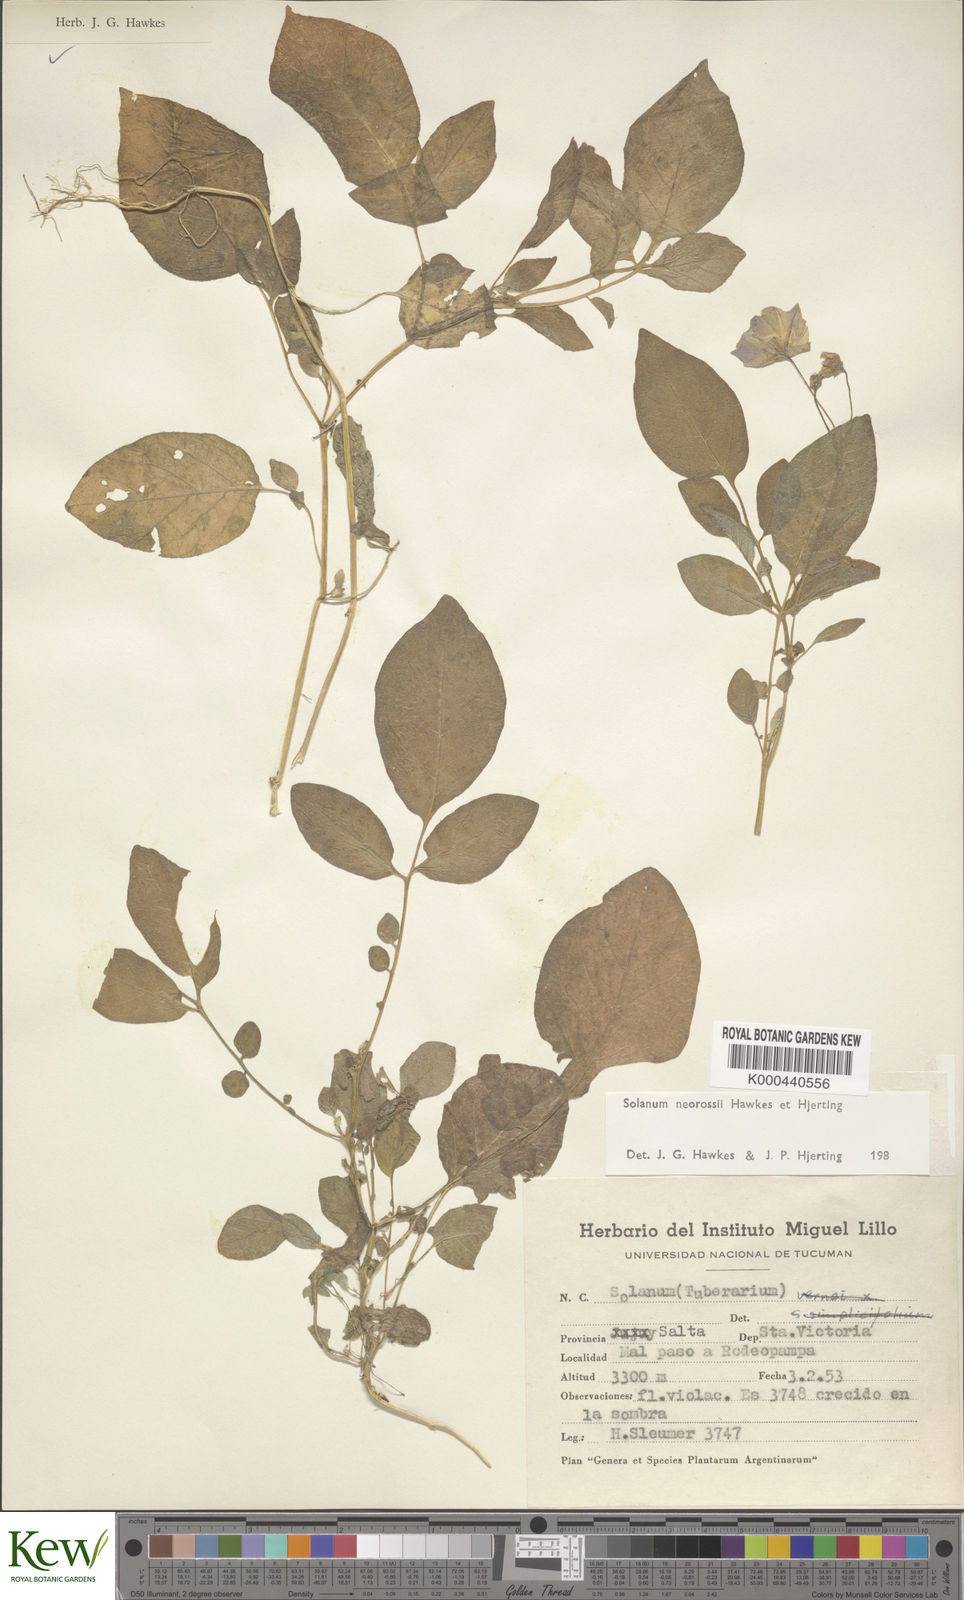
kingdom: Plantae
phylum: Tracheophyta
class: Magnoliopsida
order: Solanales
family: Solanaceae
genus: Solanum
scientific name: Solanum neorossii
